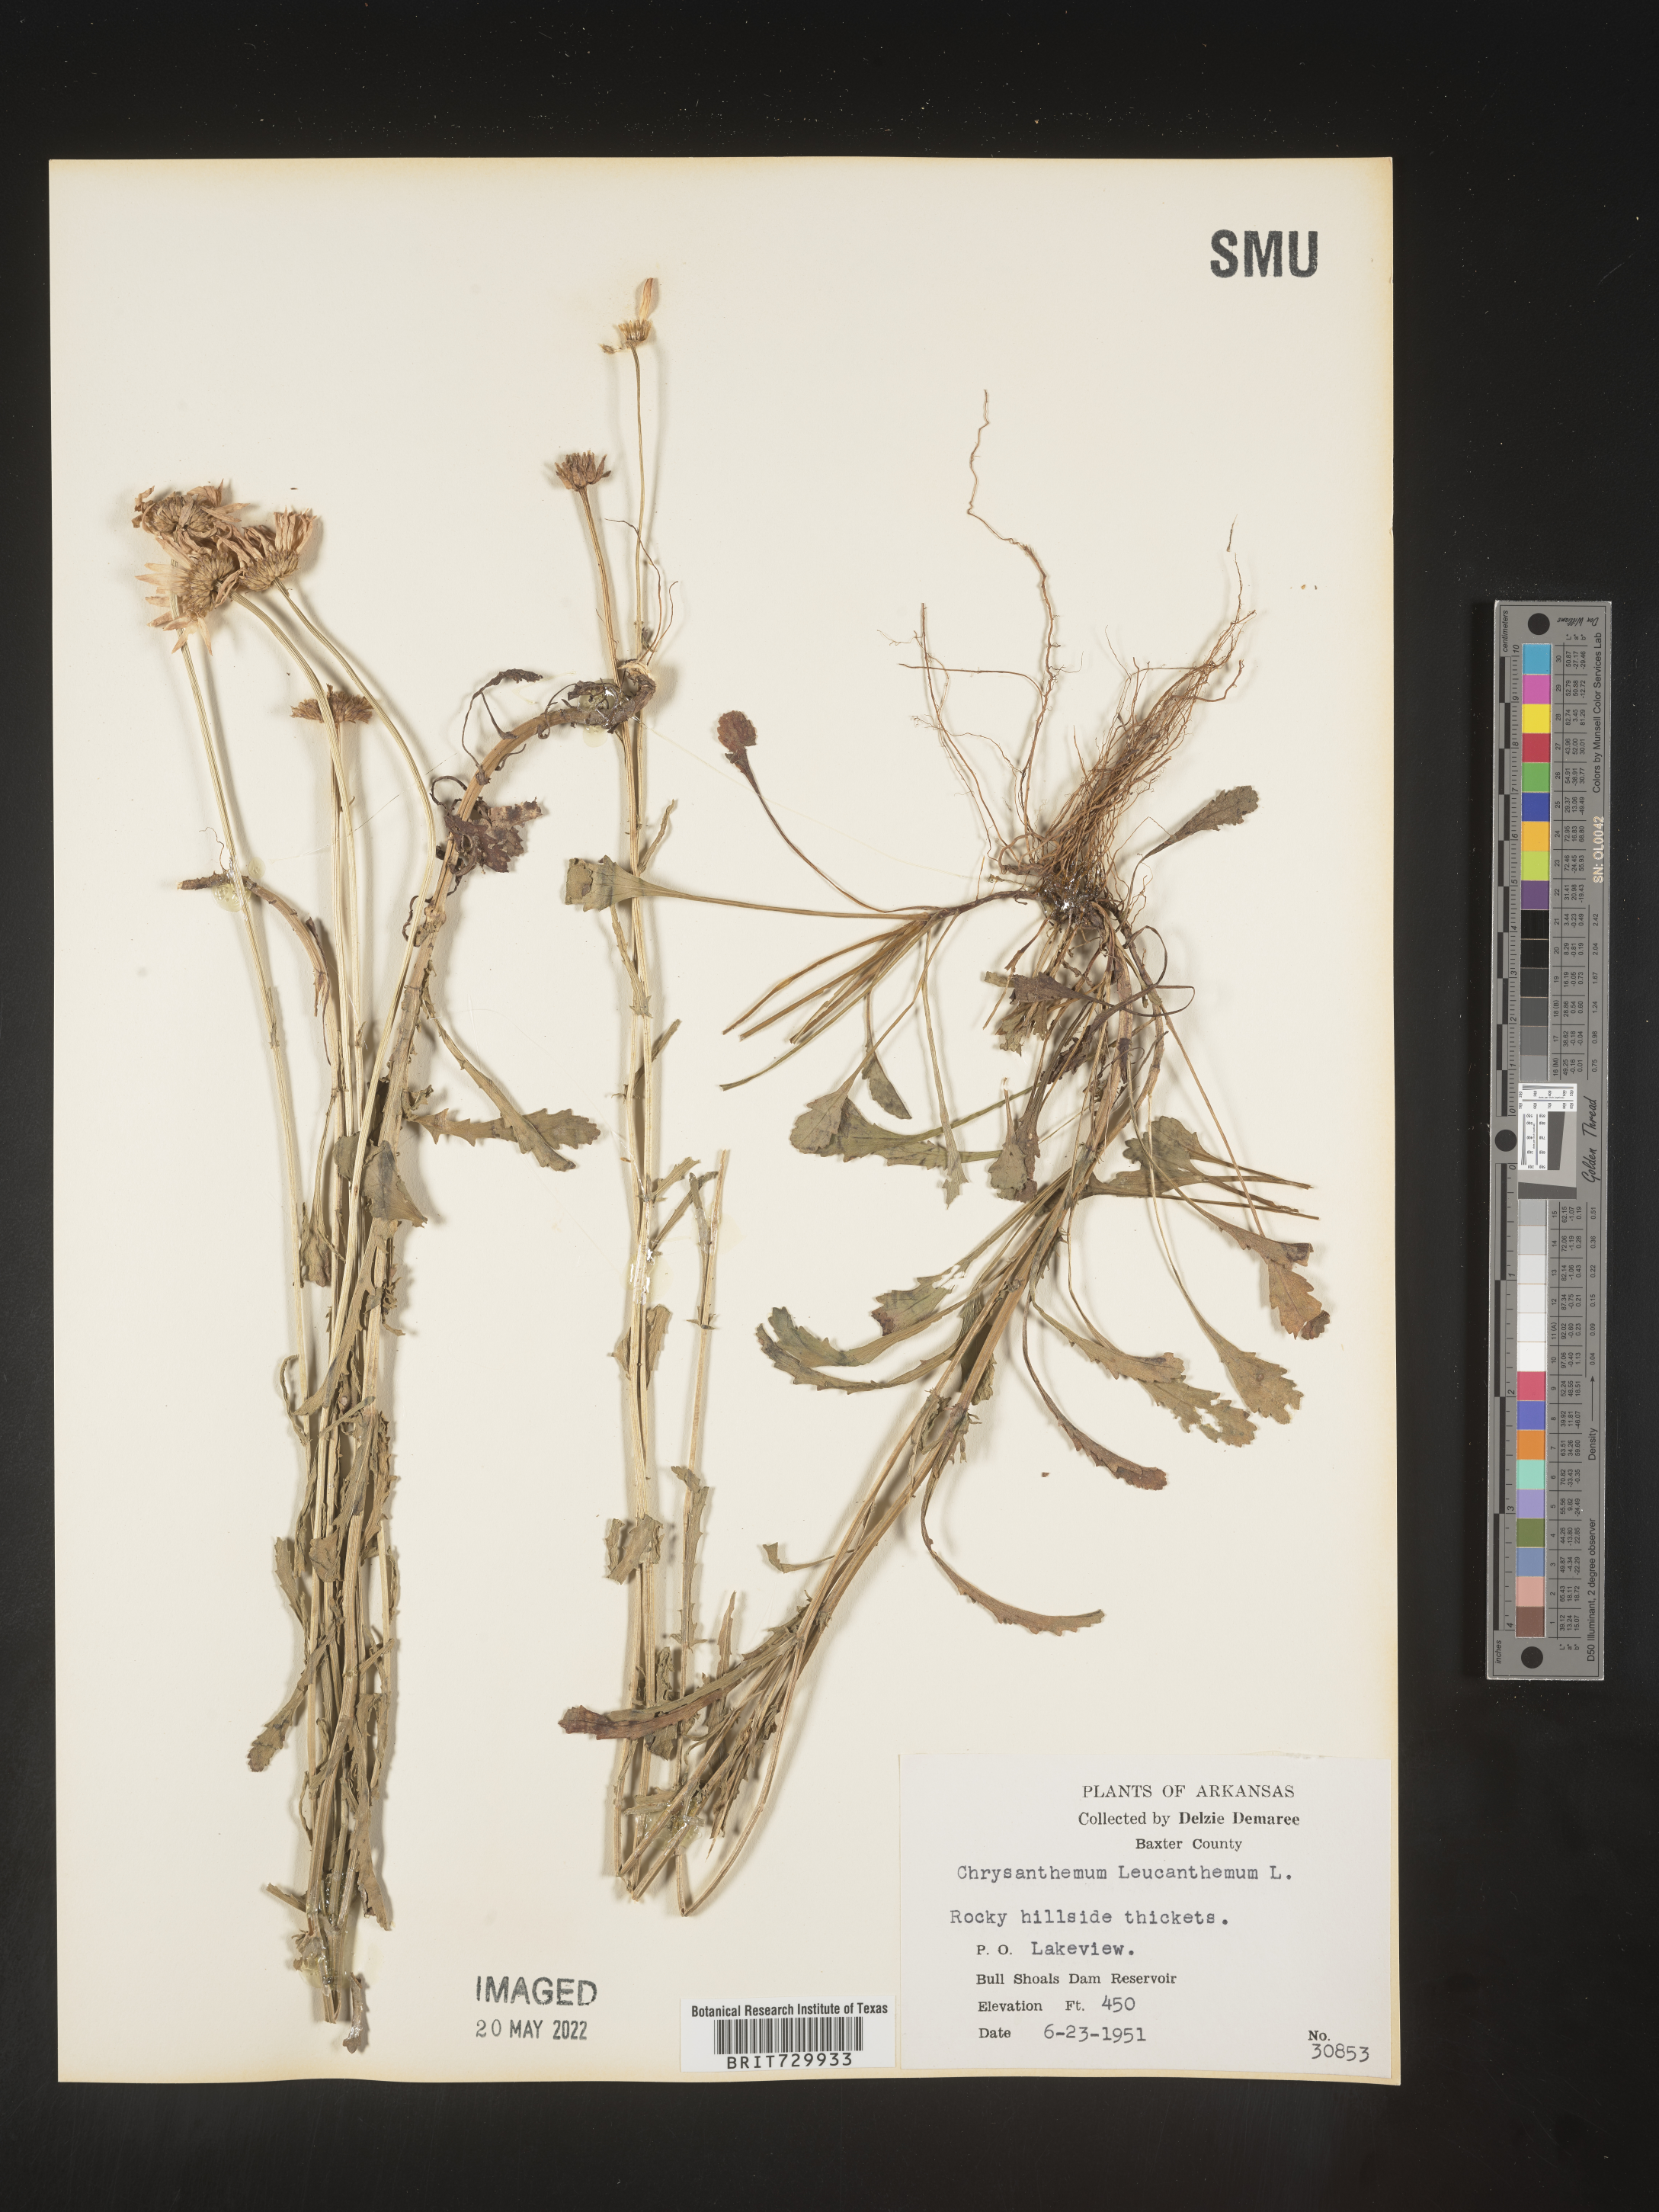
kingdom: Plantae
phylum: Tracheophyta
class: Magnoliopsida
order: Asterales
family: Asteraceae
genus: Leucanthemum
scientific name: Leucanthemum vulgare
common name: Oxeye daisy
